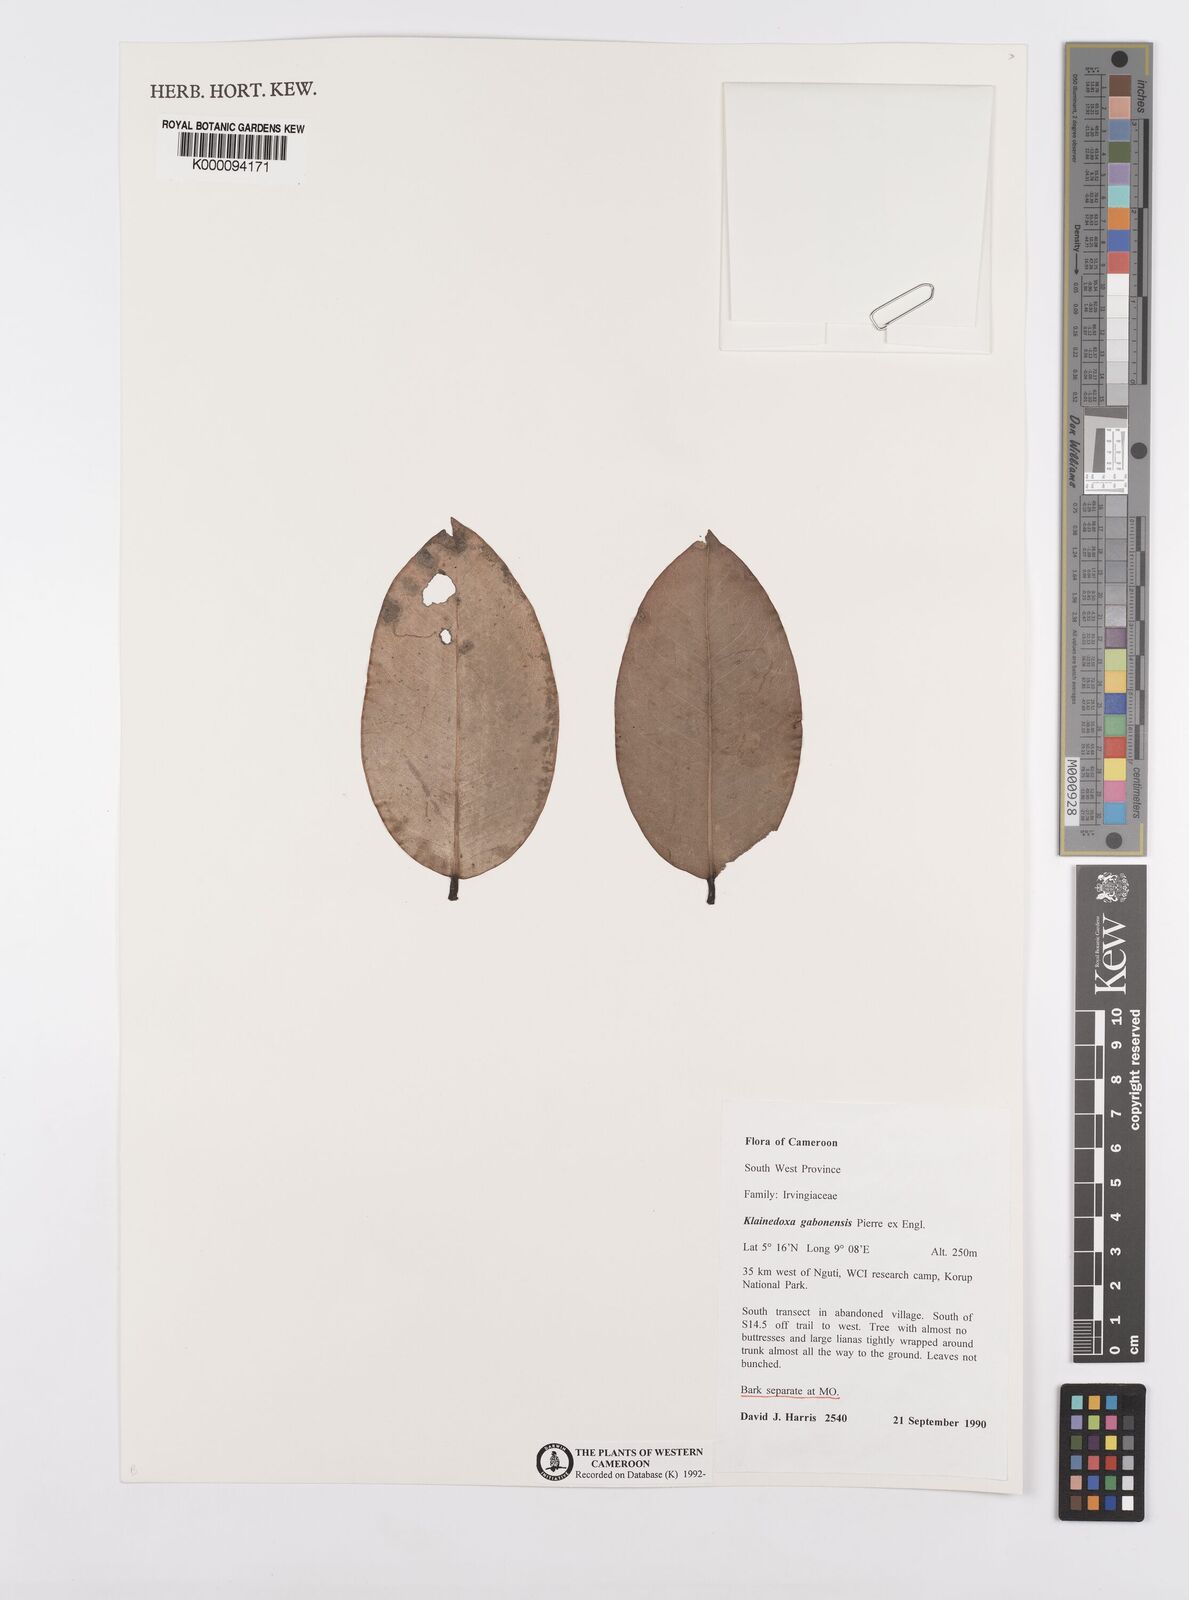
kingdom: Plantae
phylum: Tracheophyta
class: Magnoliopsida
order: Malpighiales
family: Irvingiaceae
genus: Klainedoxa
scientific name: Klainedoxa gabonensis
